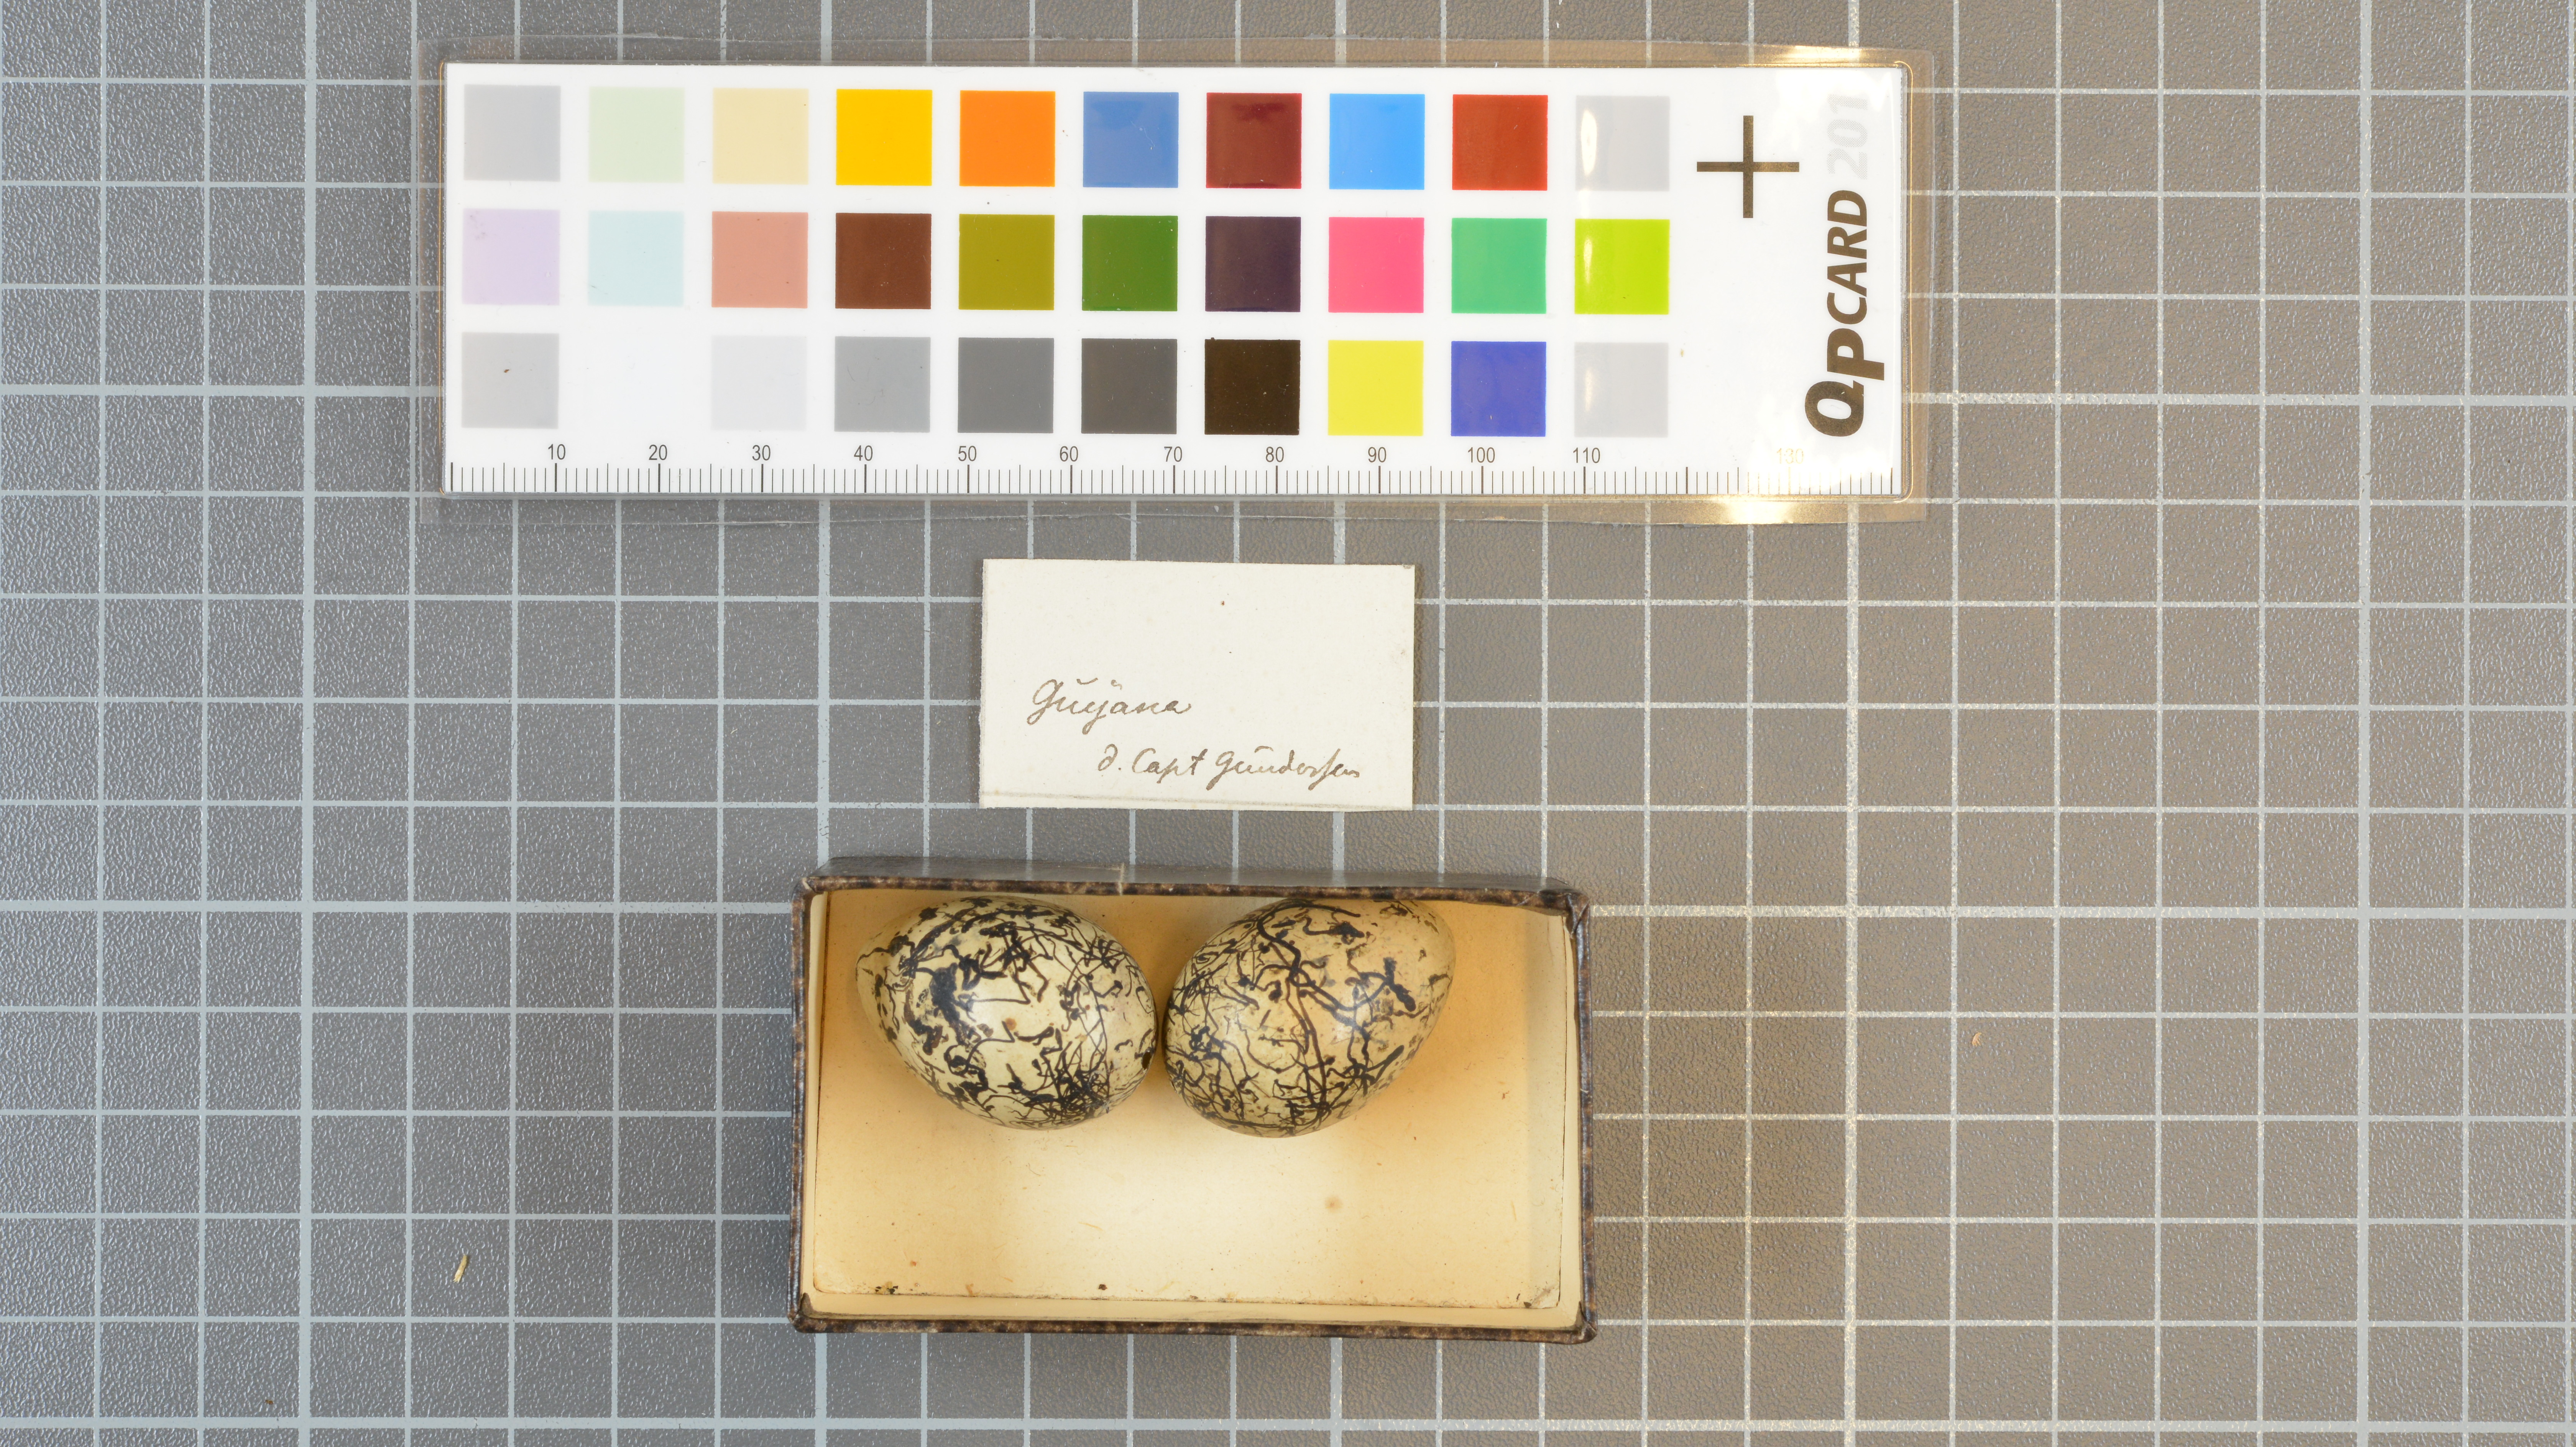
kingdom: Animalia
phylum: Chordata
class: Aves
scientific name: Aves
